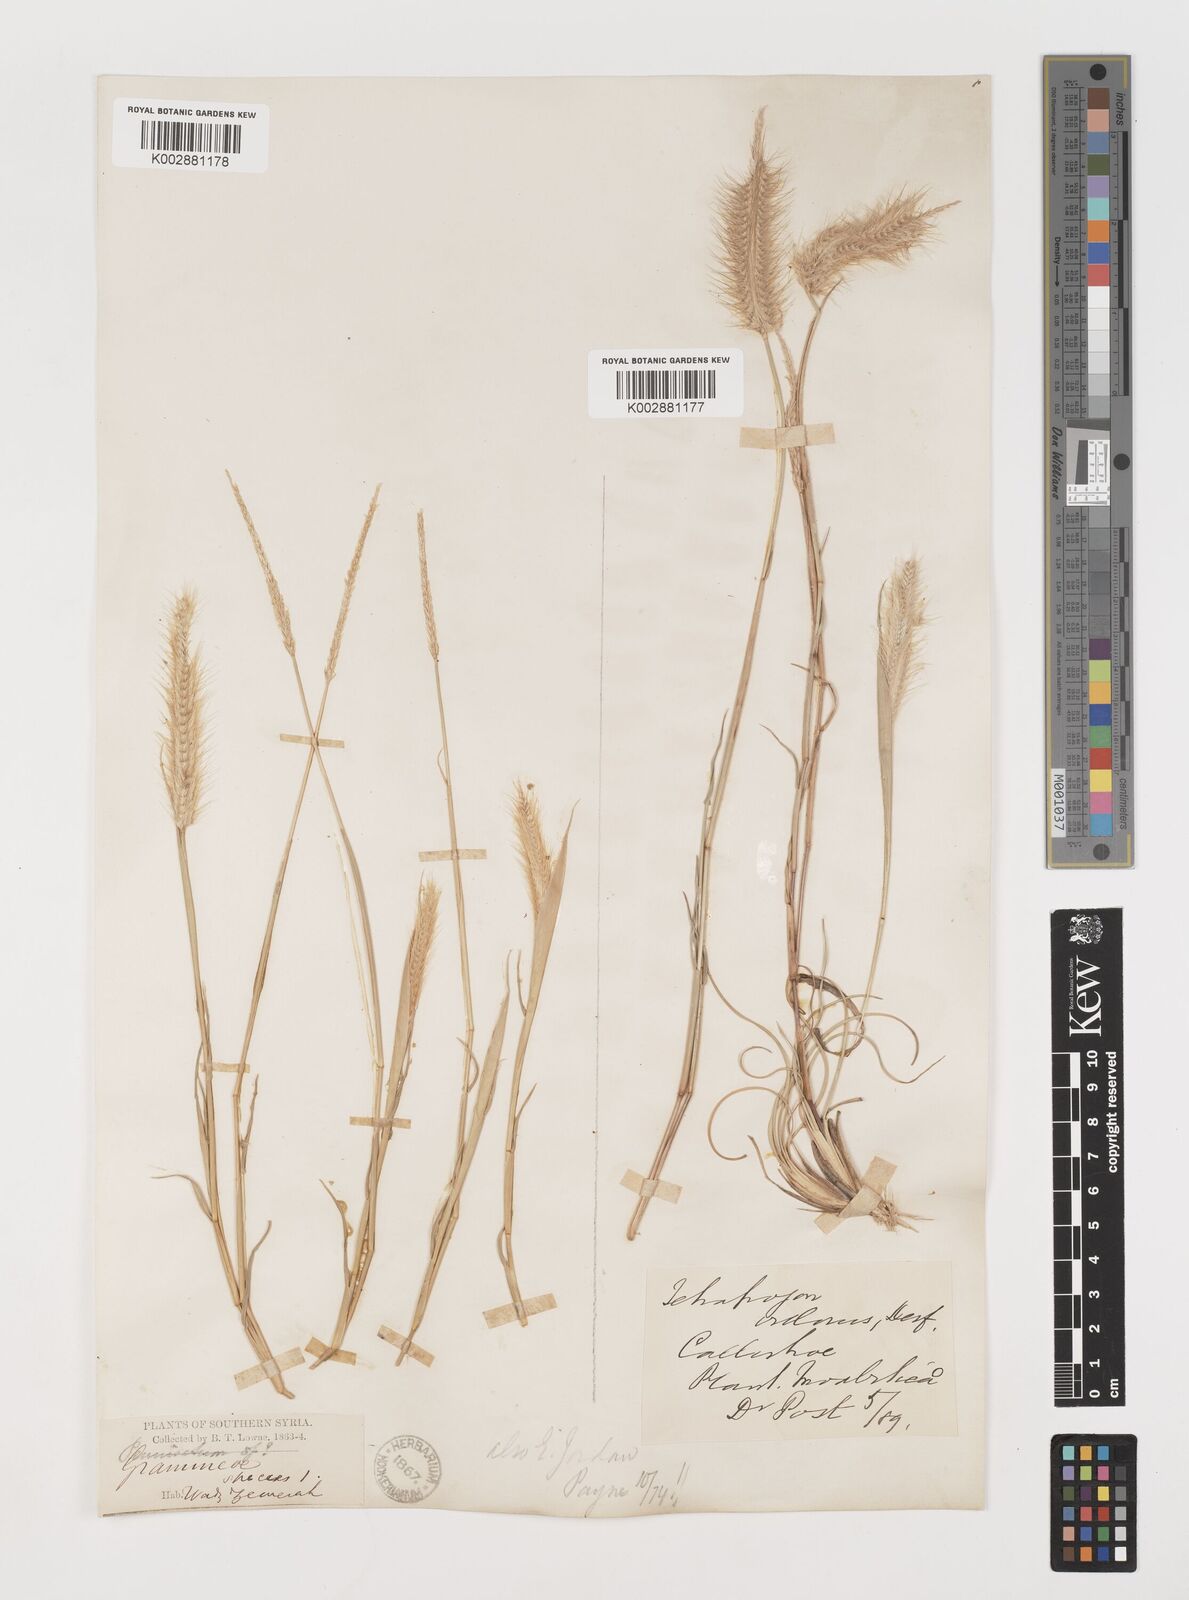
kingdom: Plantae
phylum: Tracheophyta
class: Liliopsida
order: Poales
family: Poaceae
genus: Tetrapogon
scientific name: Tetrapogon villosus
